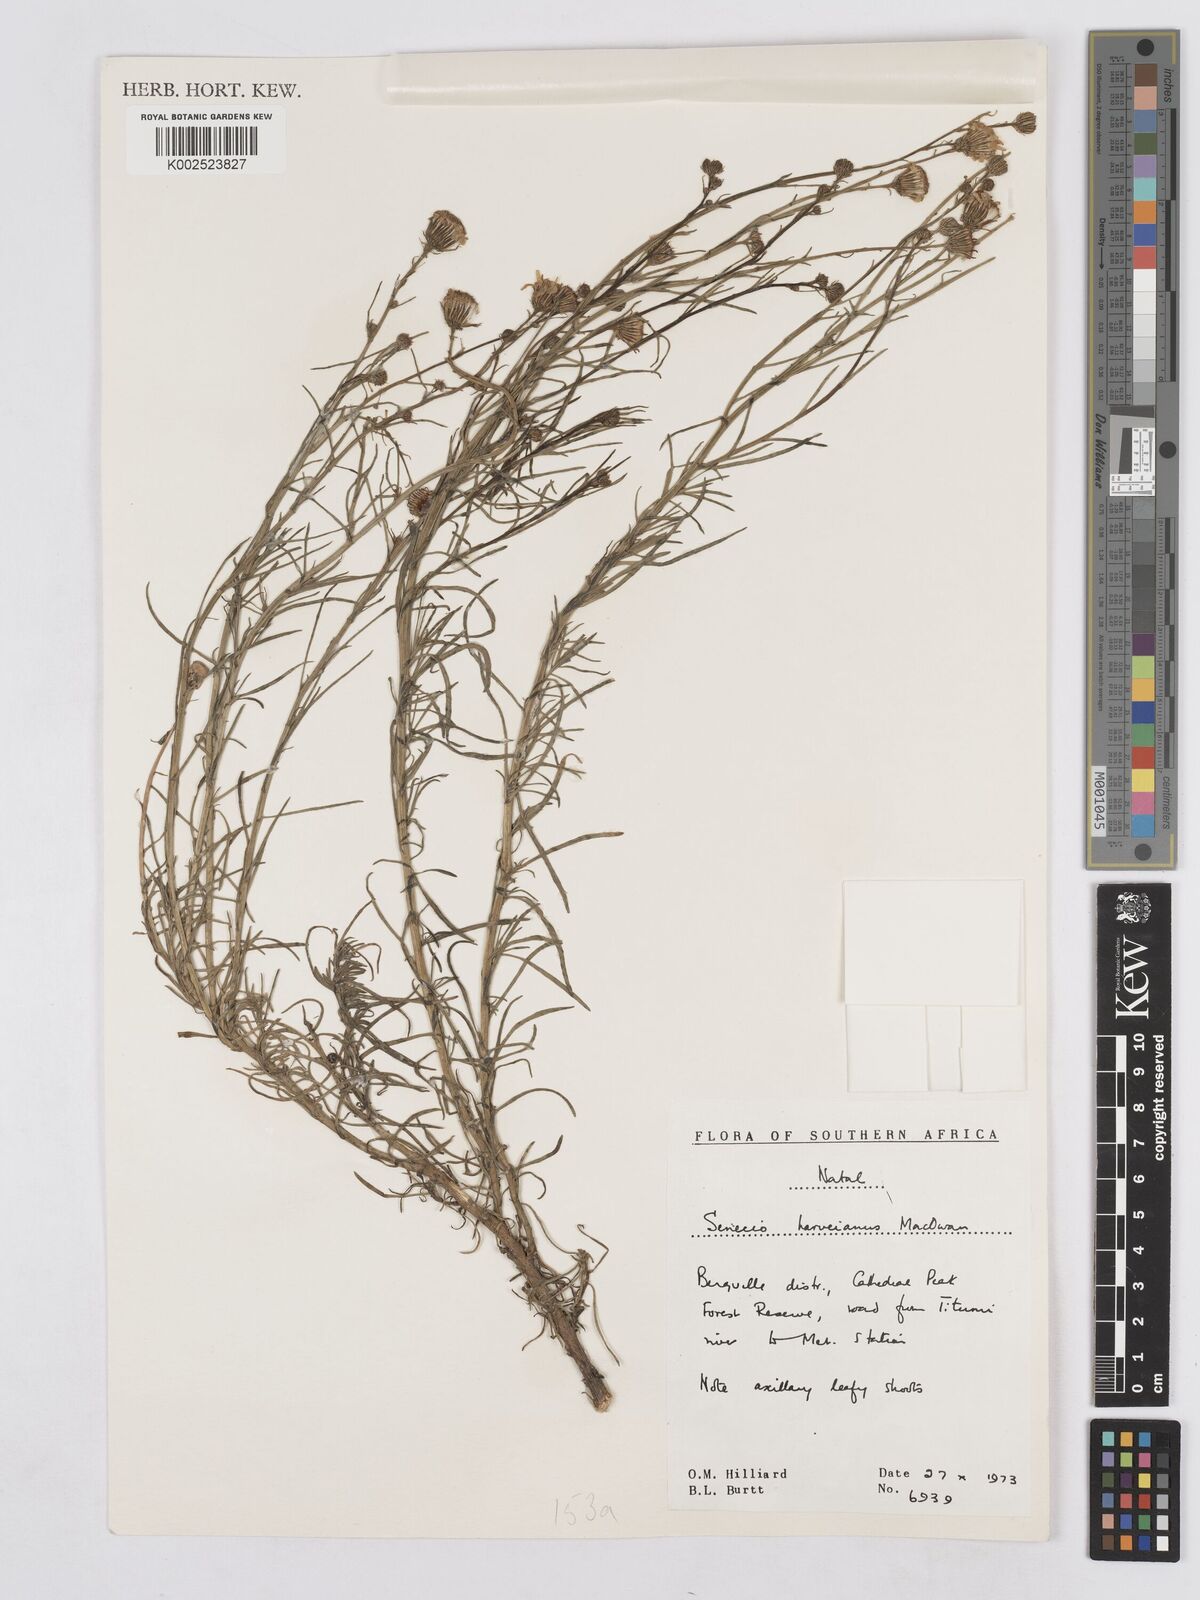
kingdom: Plantae
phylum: Tracheophyta
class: Magnoliopsida
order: Asterales
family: Asteraceae
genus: Senecio
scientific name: Senecio harveyanus
